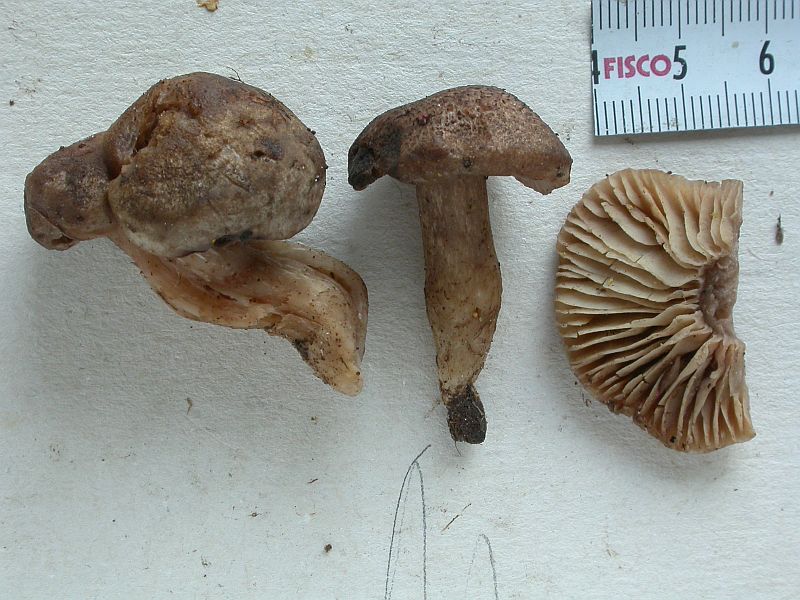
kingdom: Fungi
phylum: Basidiomycota
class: Agaricomycetes
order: Agaricales
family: Tricholomataceae
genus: Pseudotricholoma
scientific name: Pseudotricholoma metapodium
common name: rødmende alfehat
